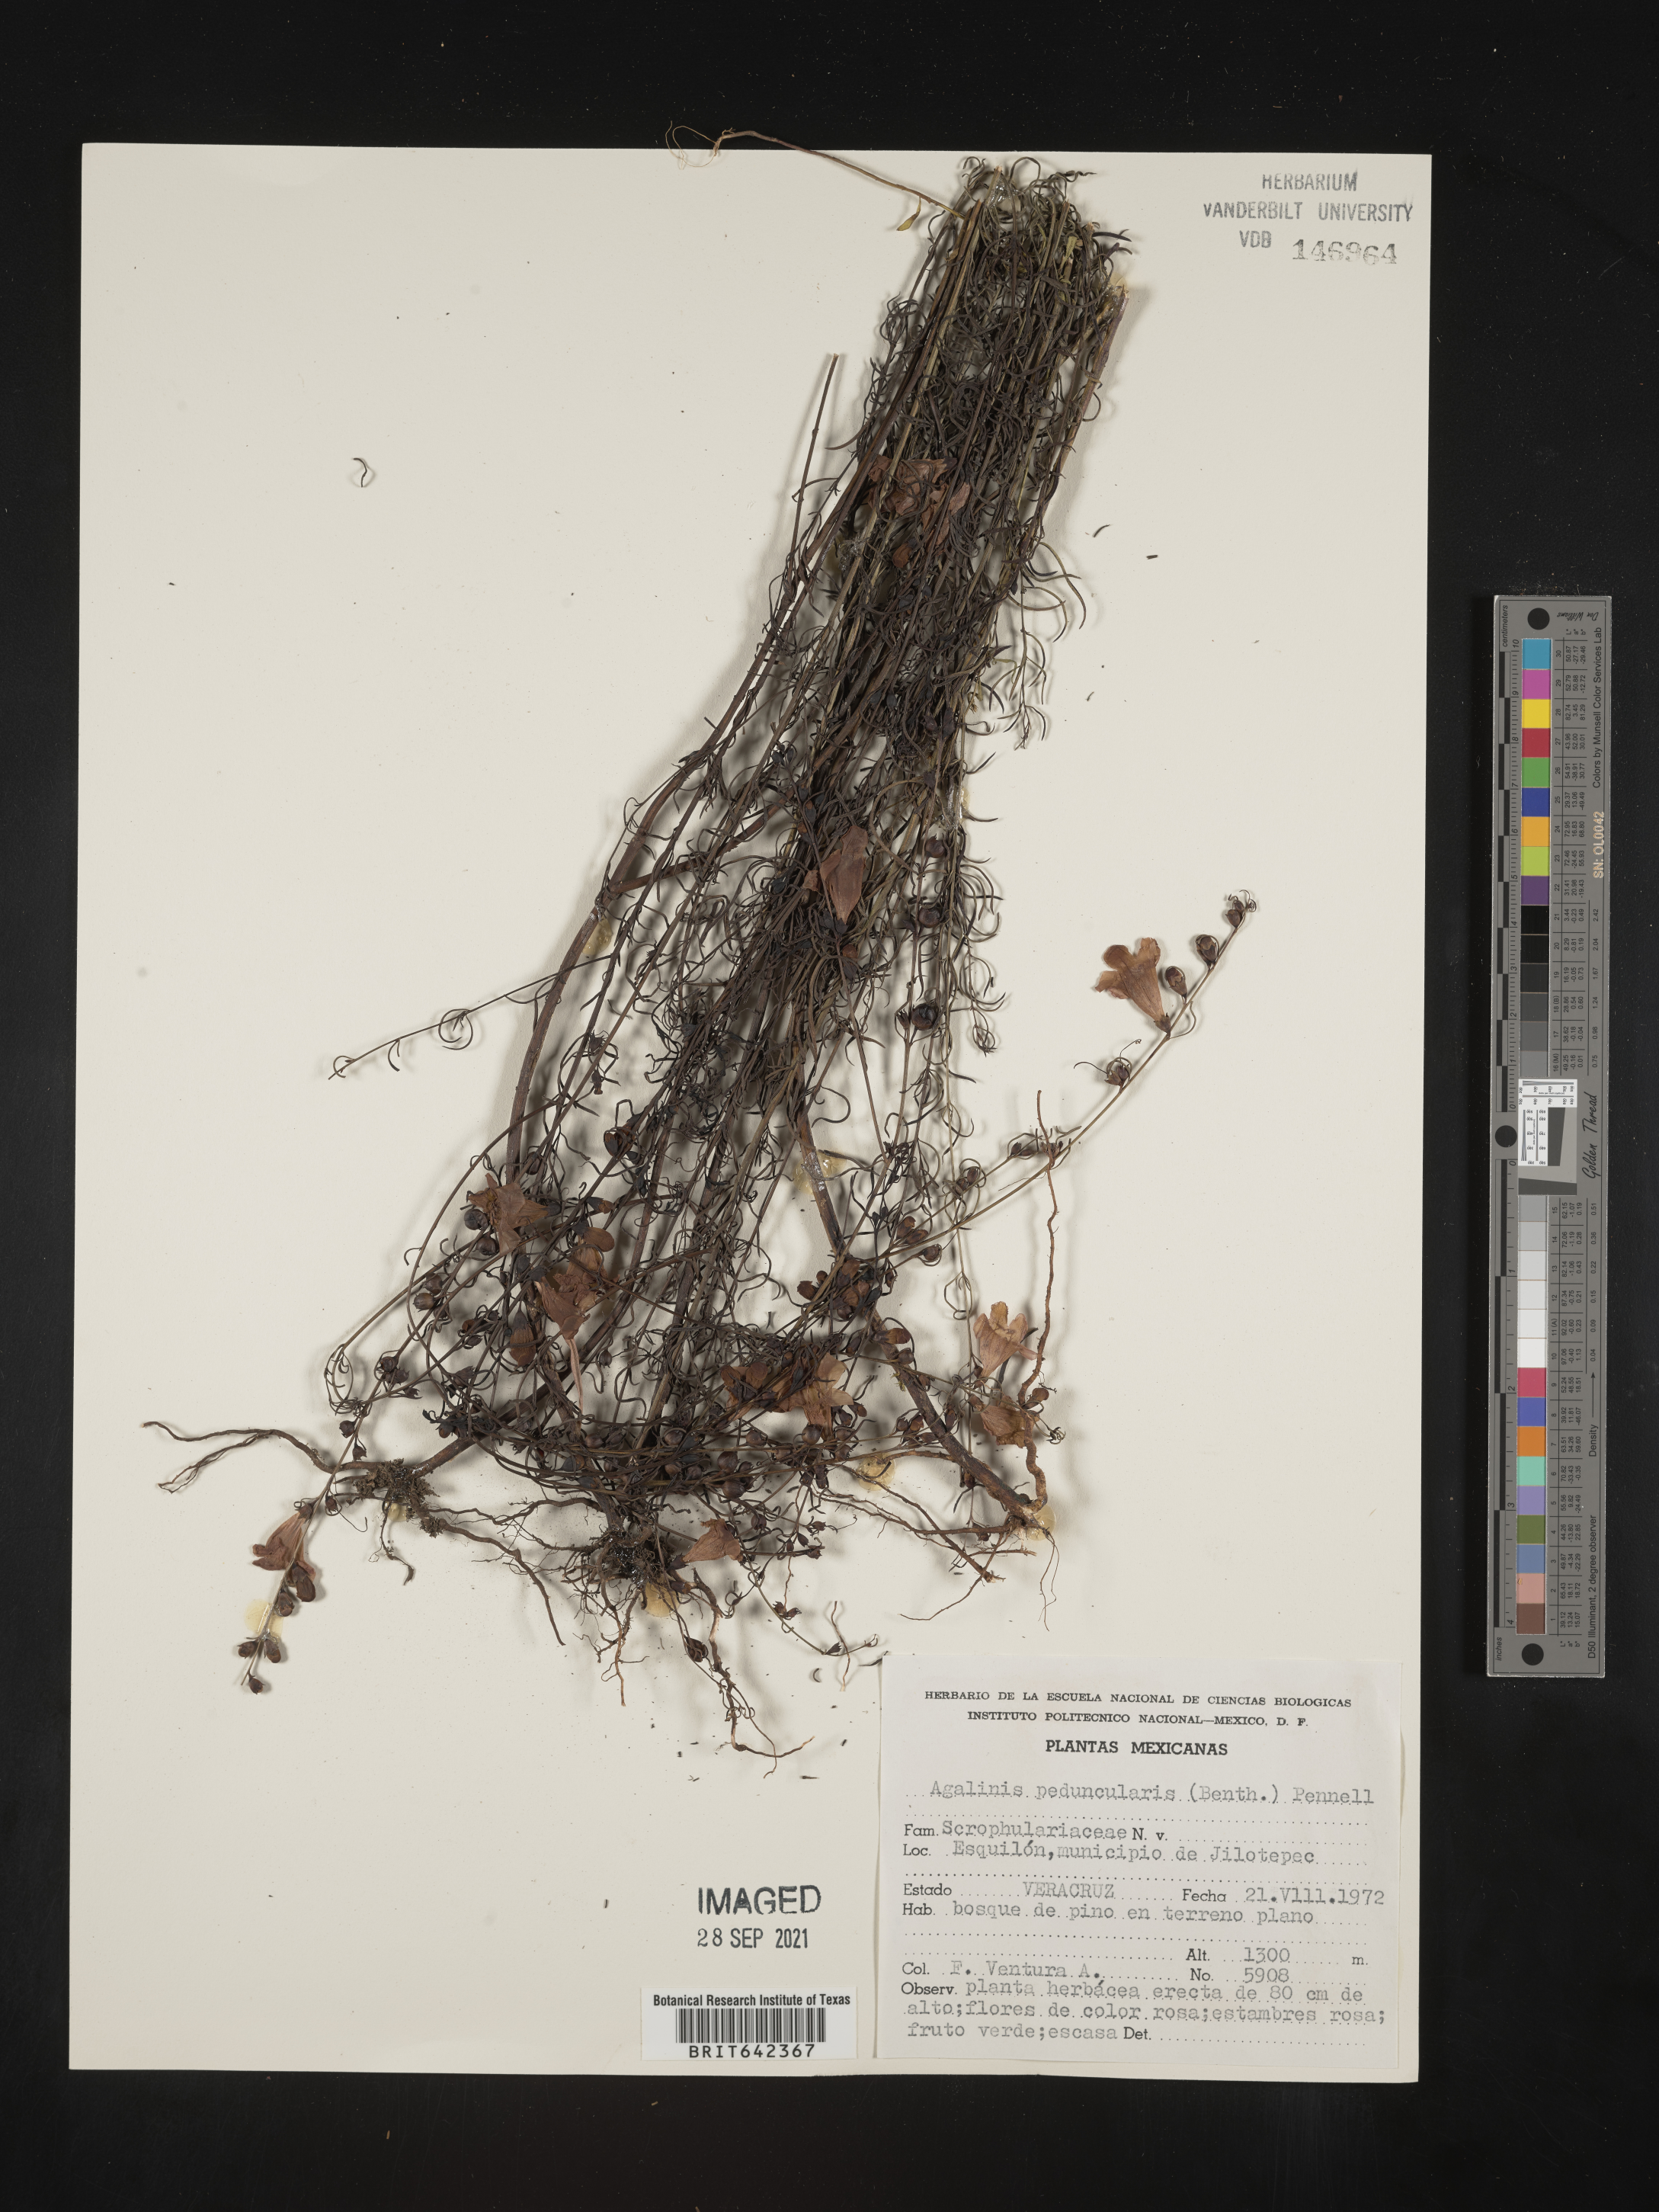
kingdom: Plantae
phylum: Tracheophyta
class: Magnoliopsida
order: Lamiales
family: Orobanchaceae
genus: Agalinis
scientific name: Agalinis
